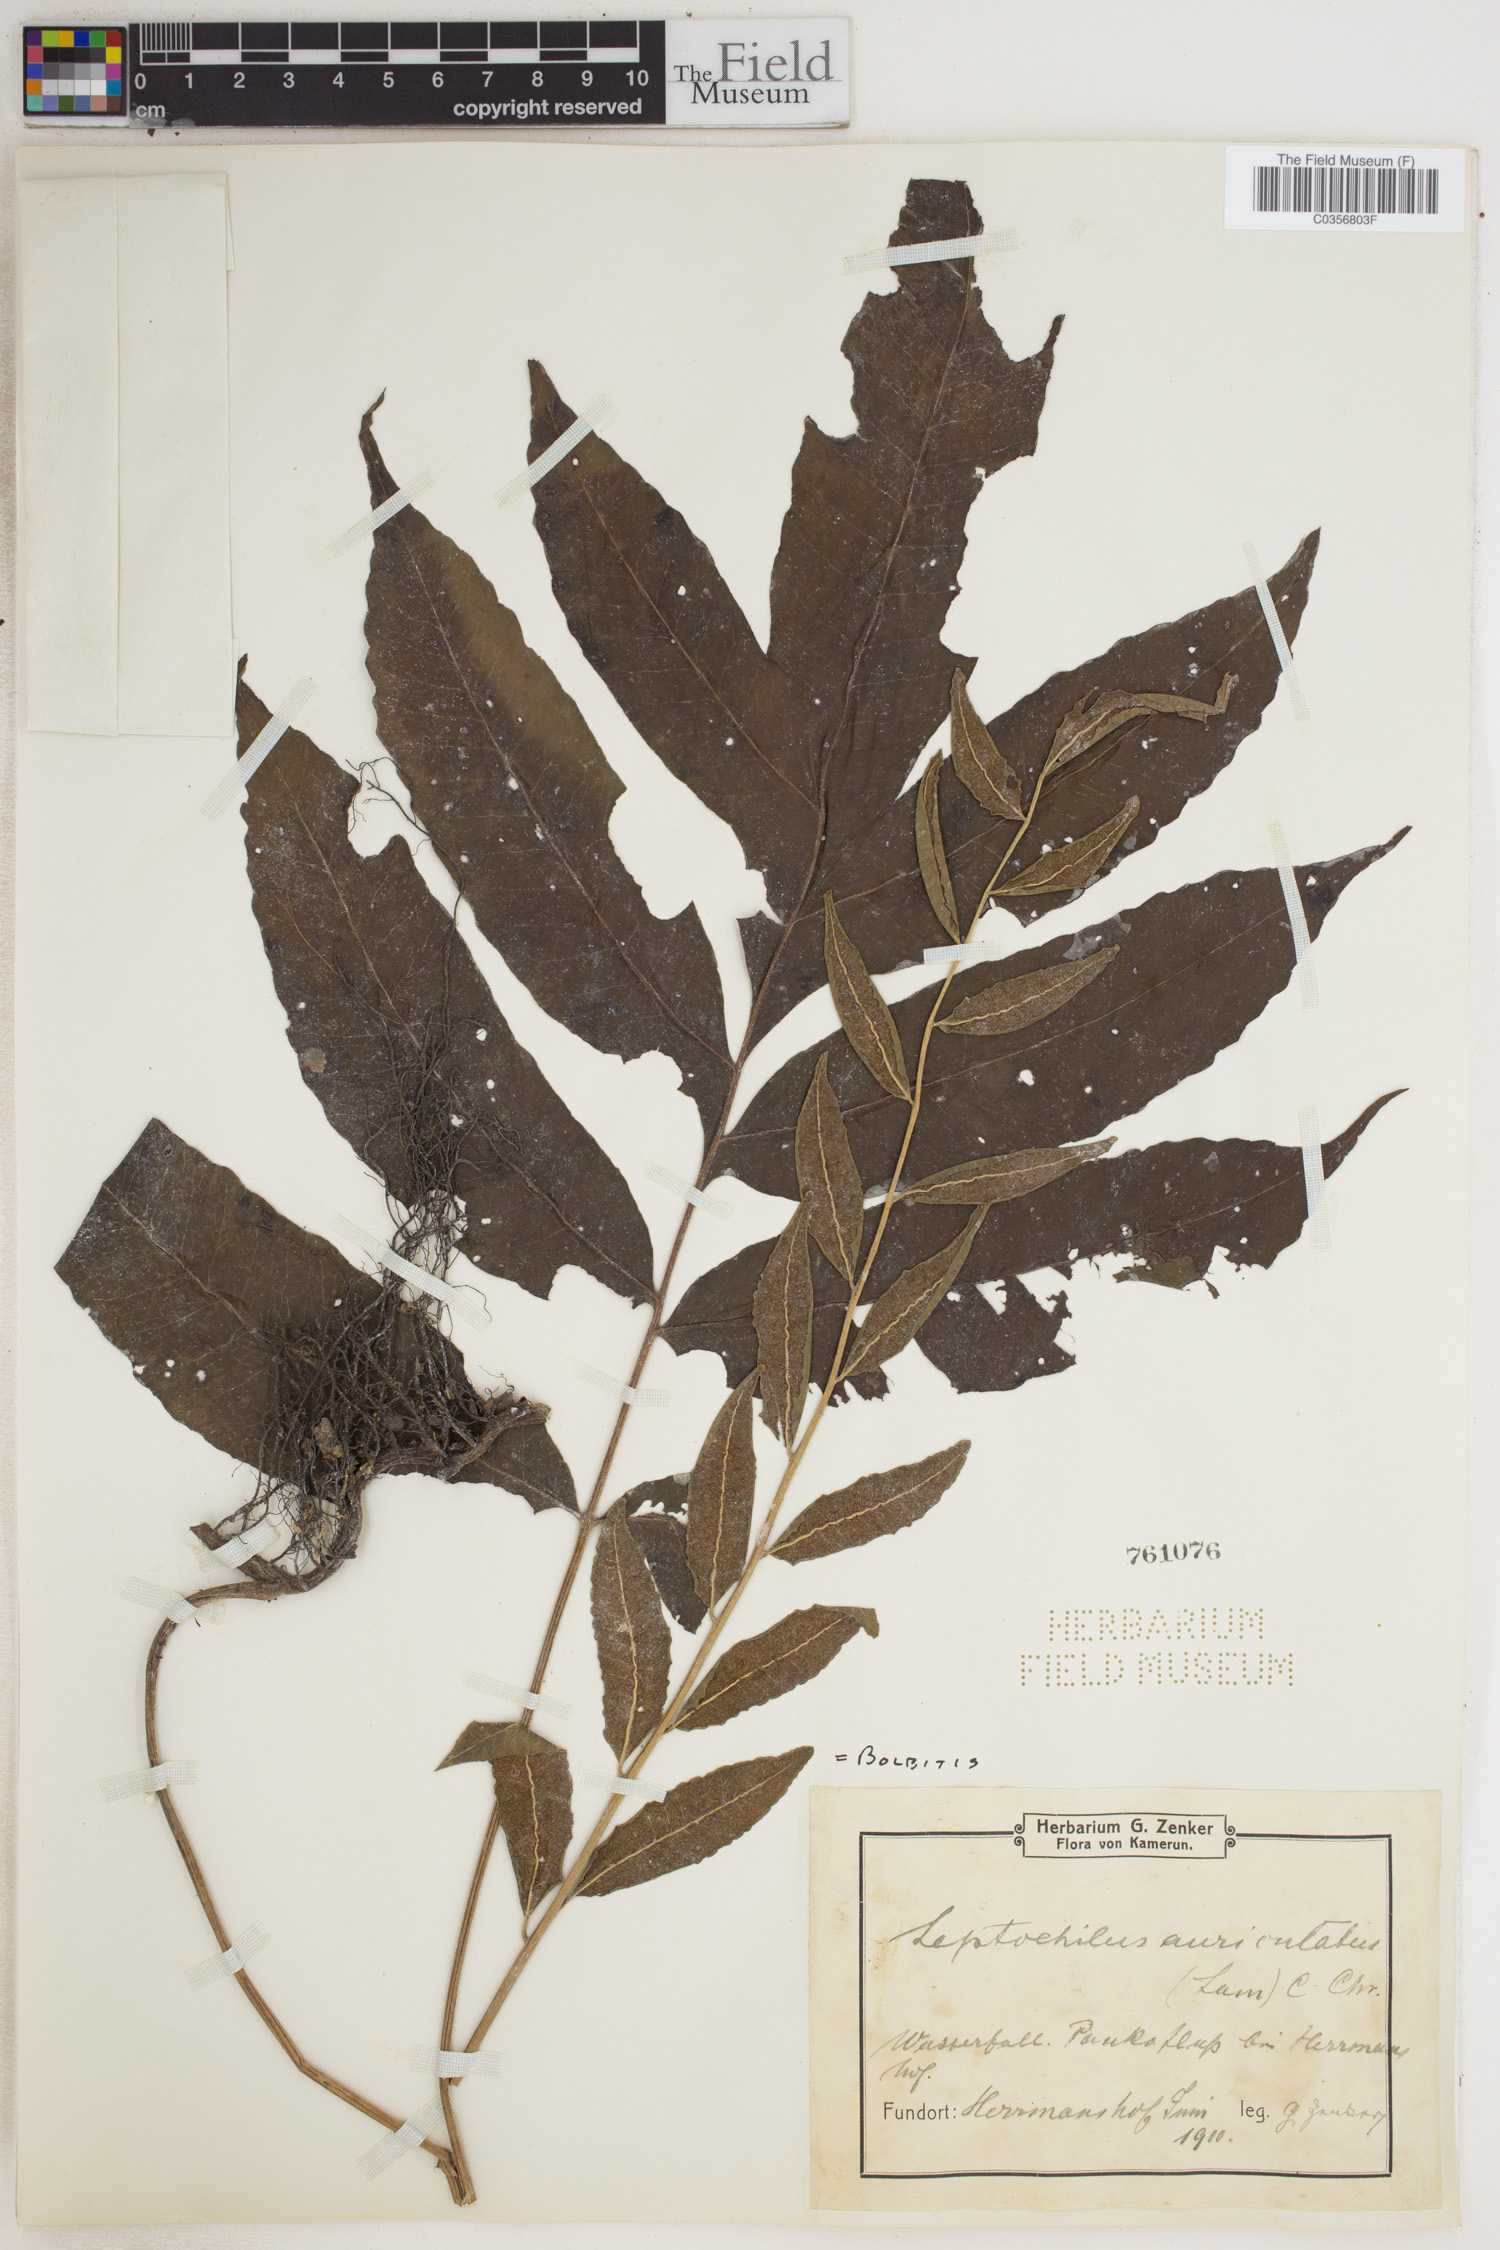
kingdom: Plantae
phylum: Tracheophyta
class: Polypodiopsida
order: Polypodiales
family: Dryopteridaceae
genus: Bolbitis
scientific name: Bolbitis
